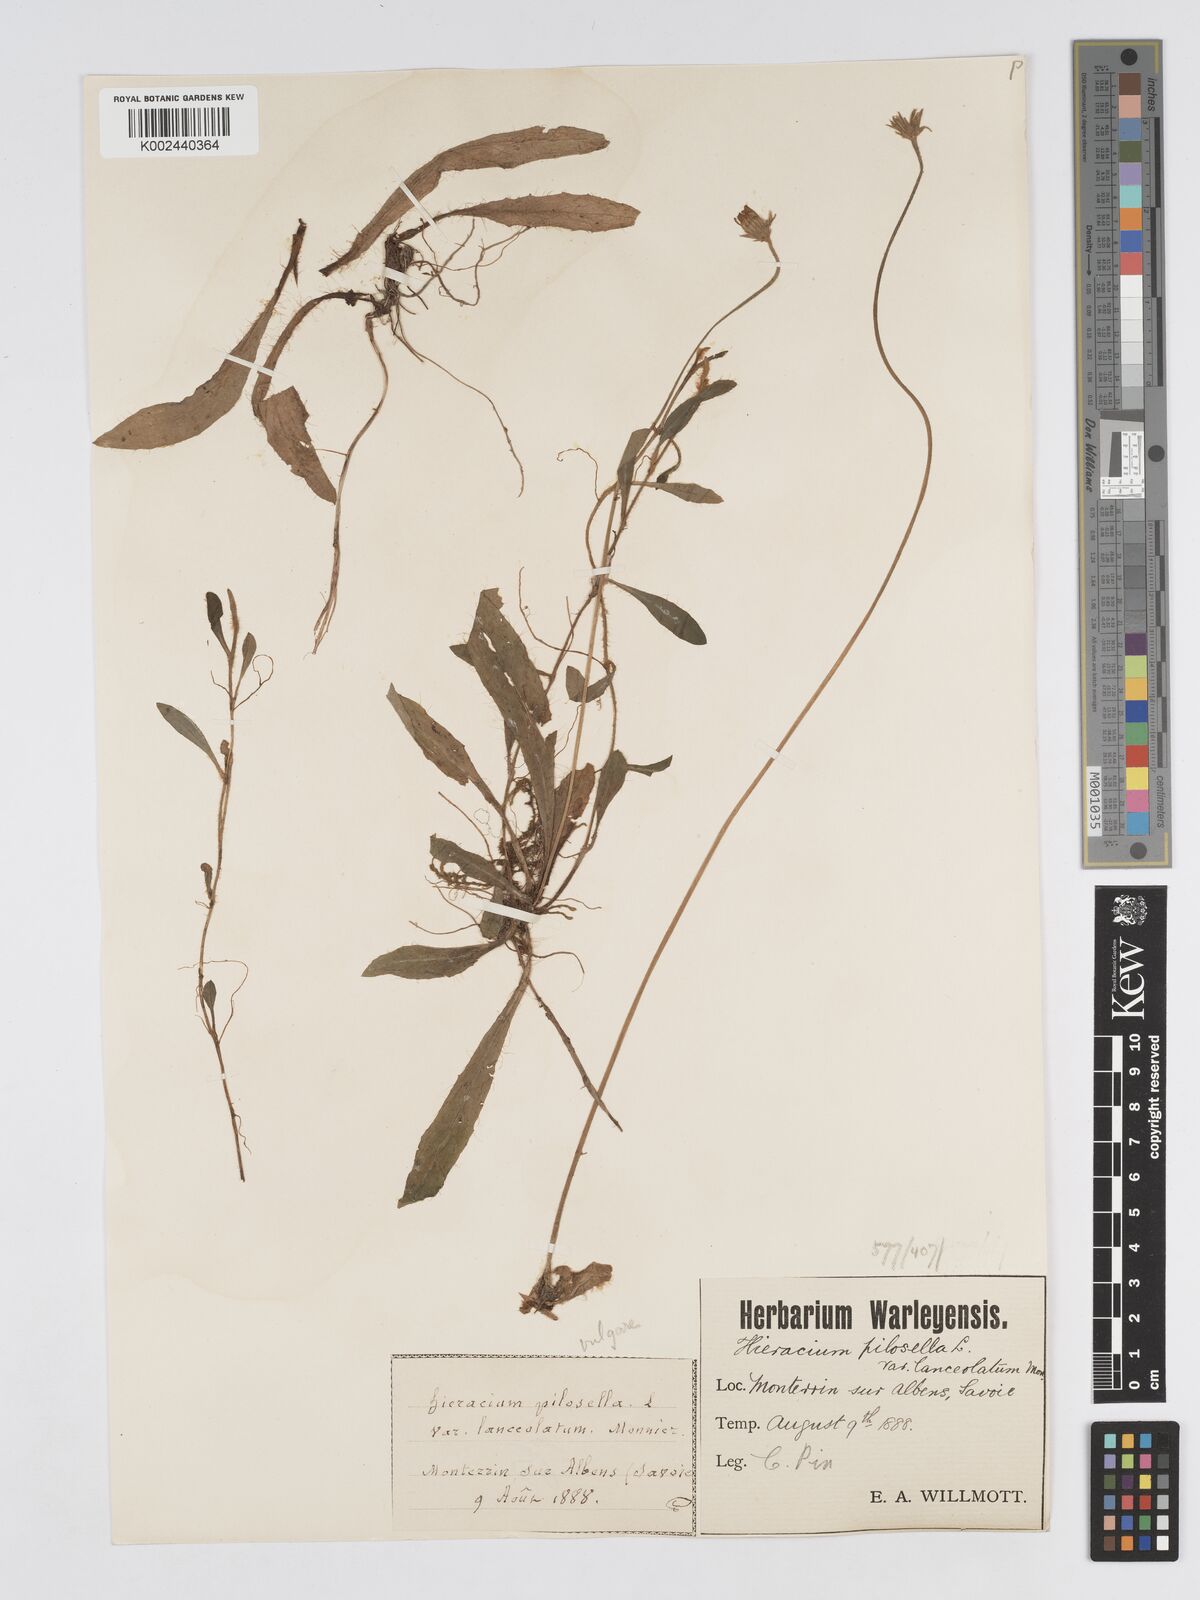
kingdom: Plantae
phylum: Tracheophyta
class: Magnoliopsida
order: Asterales
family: Asteraceae
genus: Pilosella
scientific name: Pilosella officinarum
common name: Mouse-ear hawkweed
